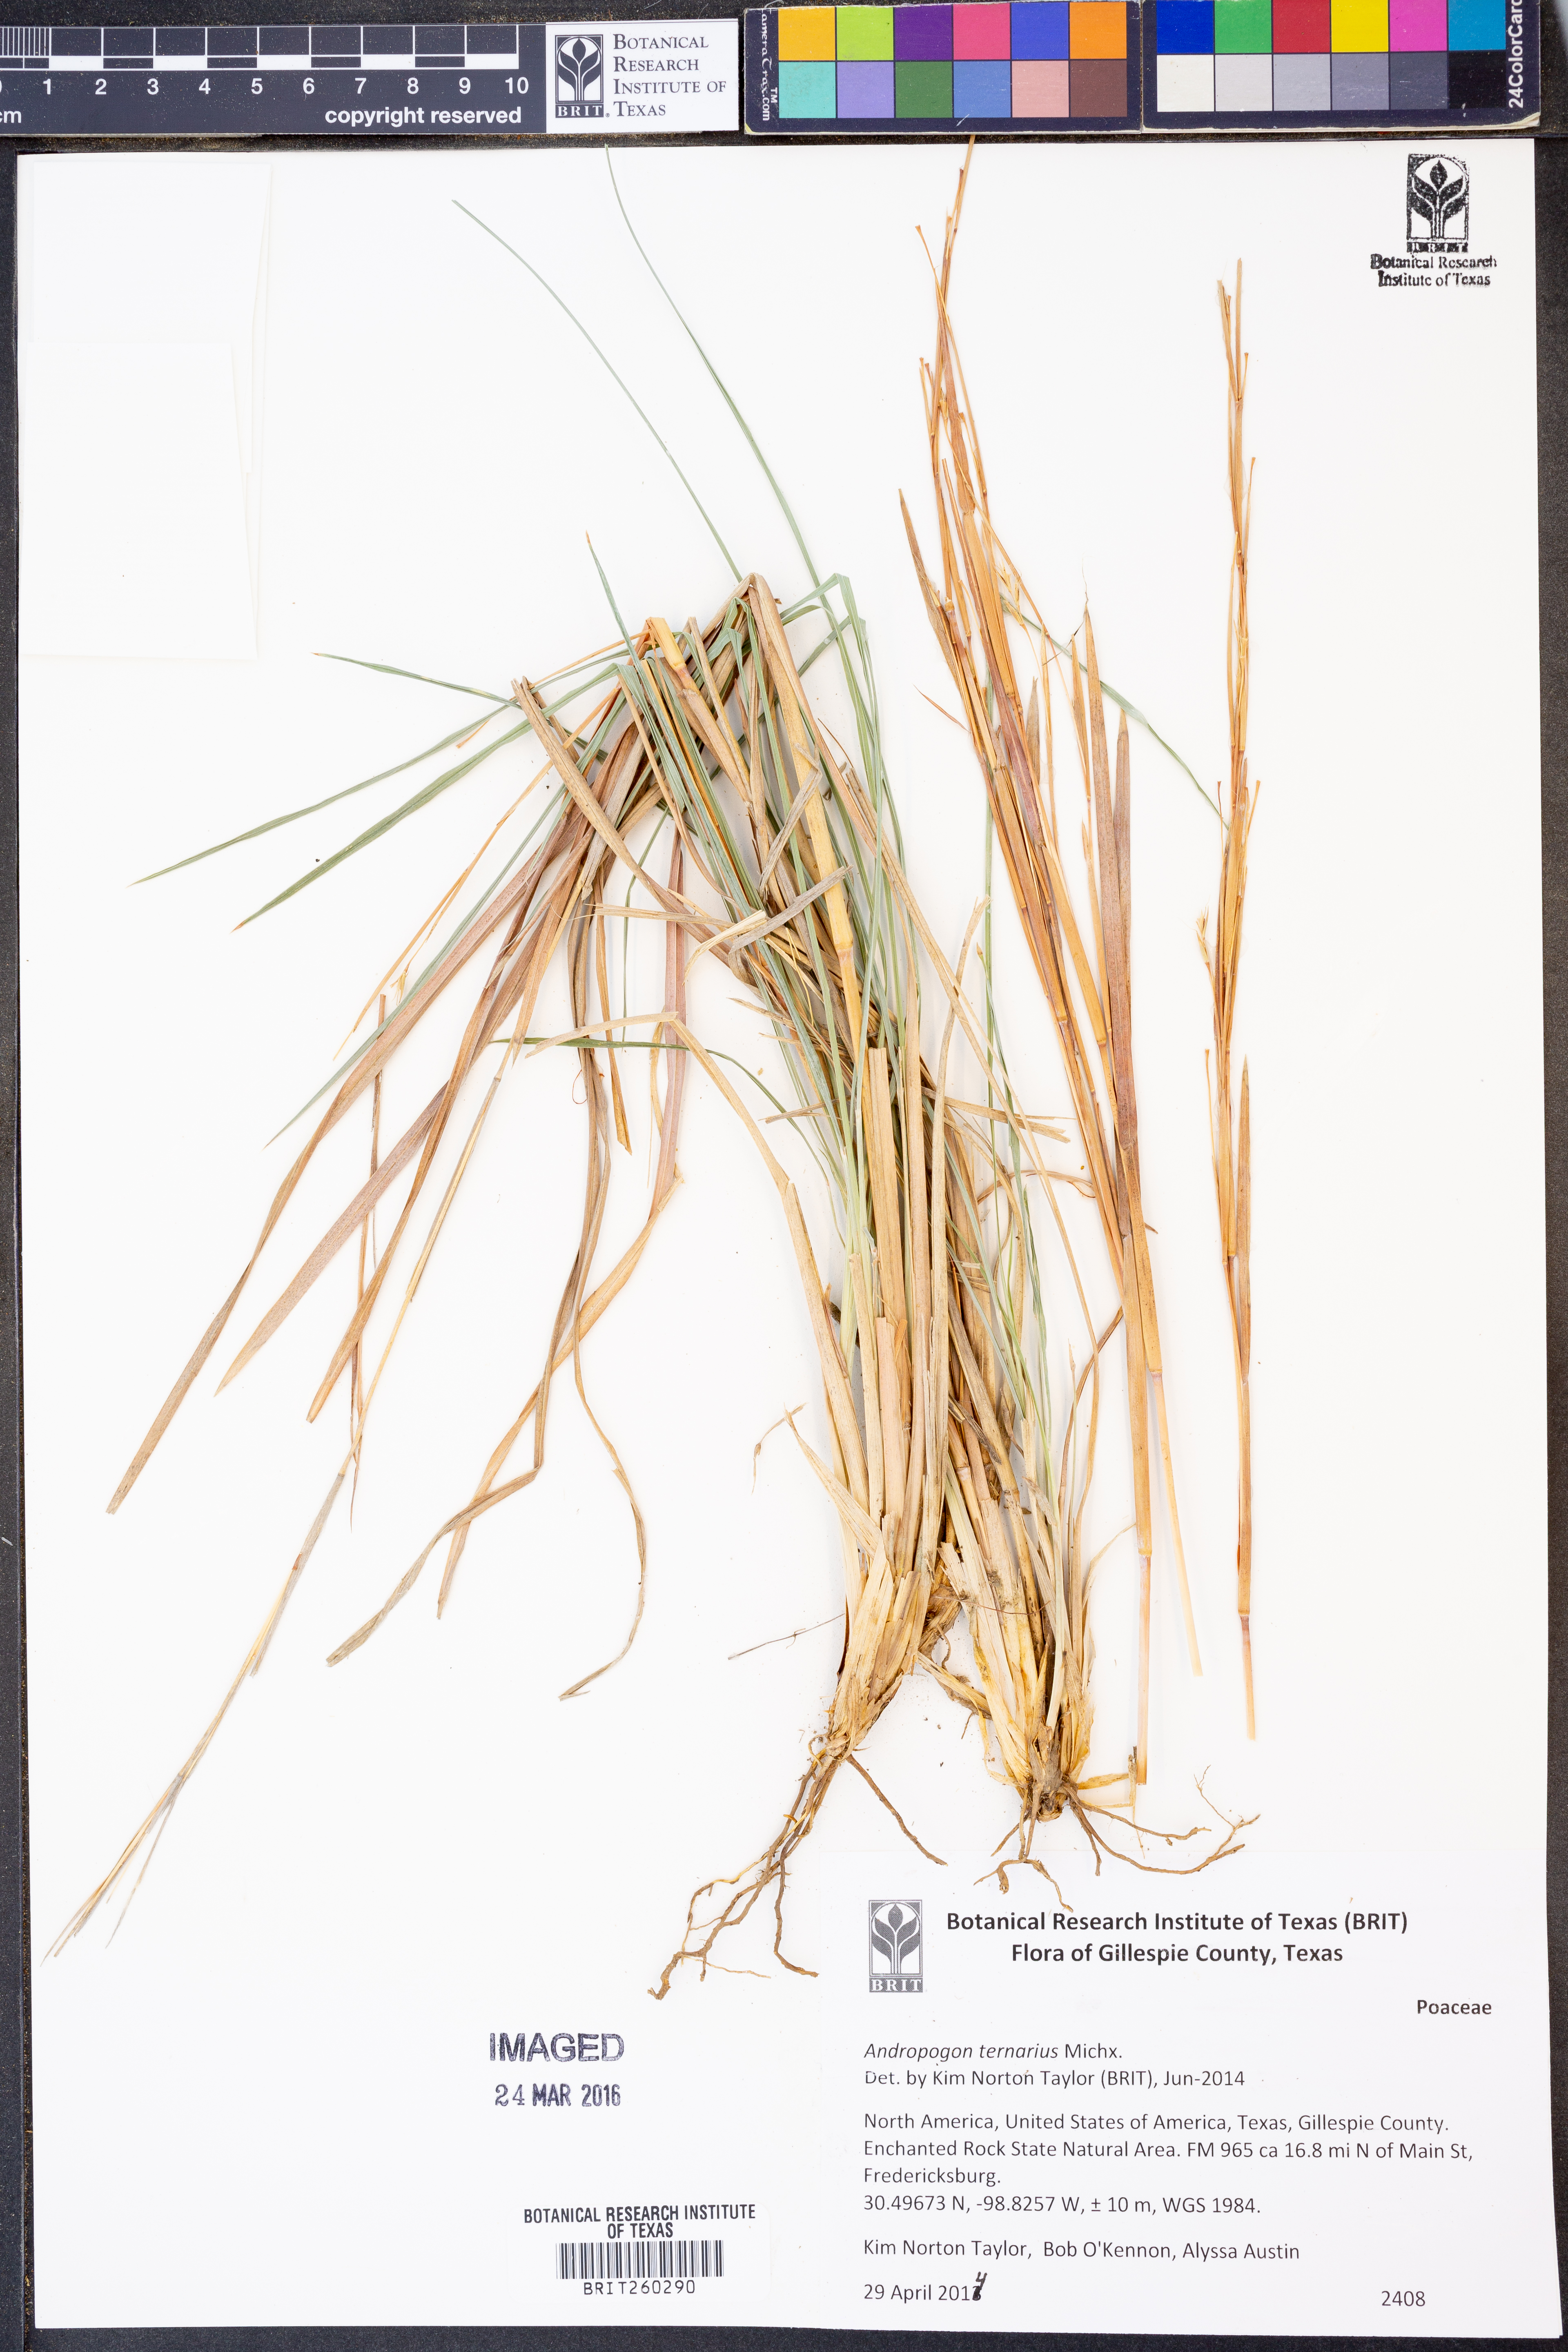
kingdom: Plantae
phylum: Tracheophyta
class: Liliopsida
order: Poales
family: Poaceae
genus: Andropogon
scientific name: Andropogon ternarius
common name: Split bluestem
